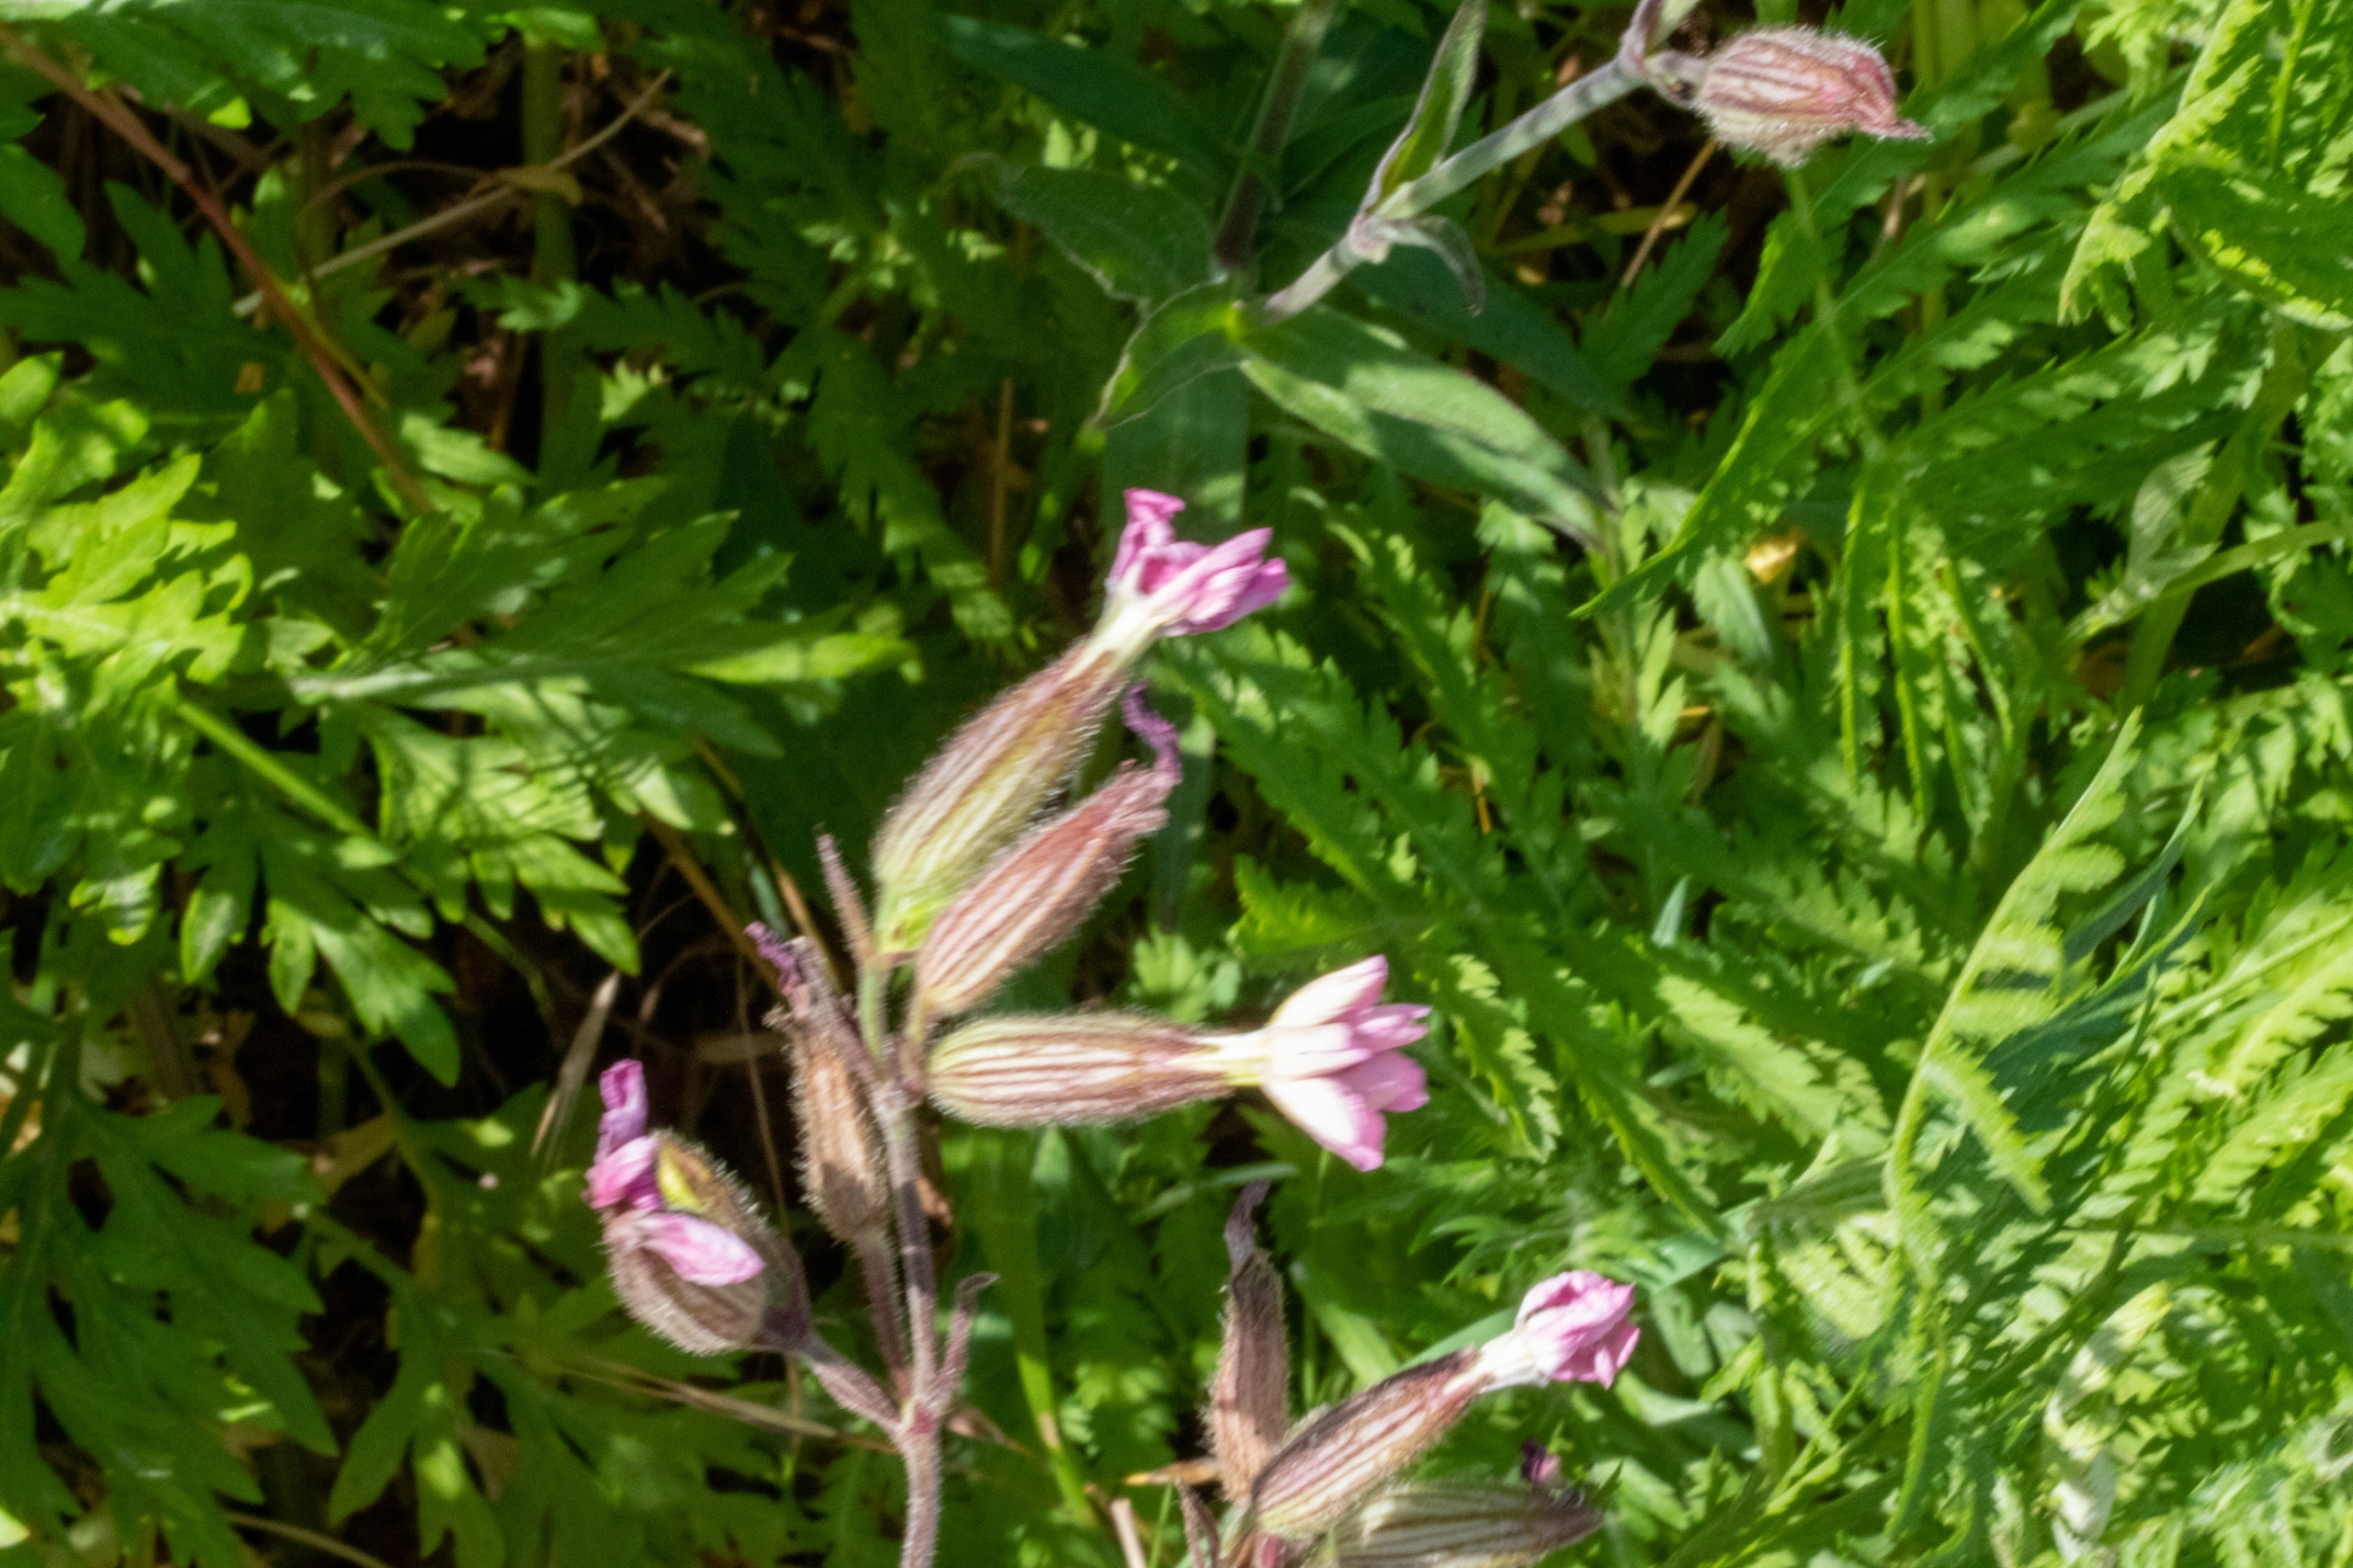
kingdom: Plantae
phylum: Tracheophyta
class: Magnoliopsida
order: Caryophyllales
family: Caryophyllaceae
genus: Silene
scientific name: Silene dioica
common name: Dagpragtstjerne
